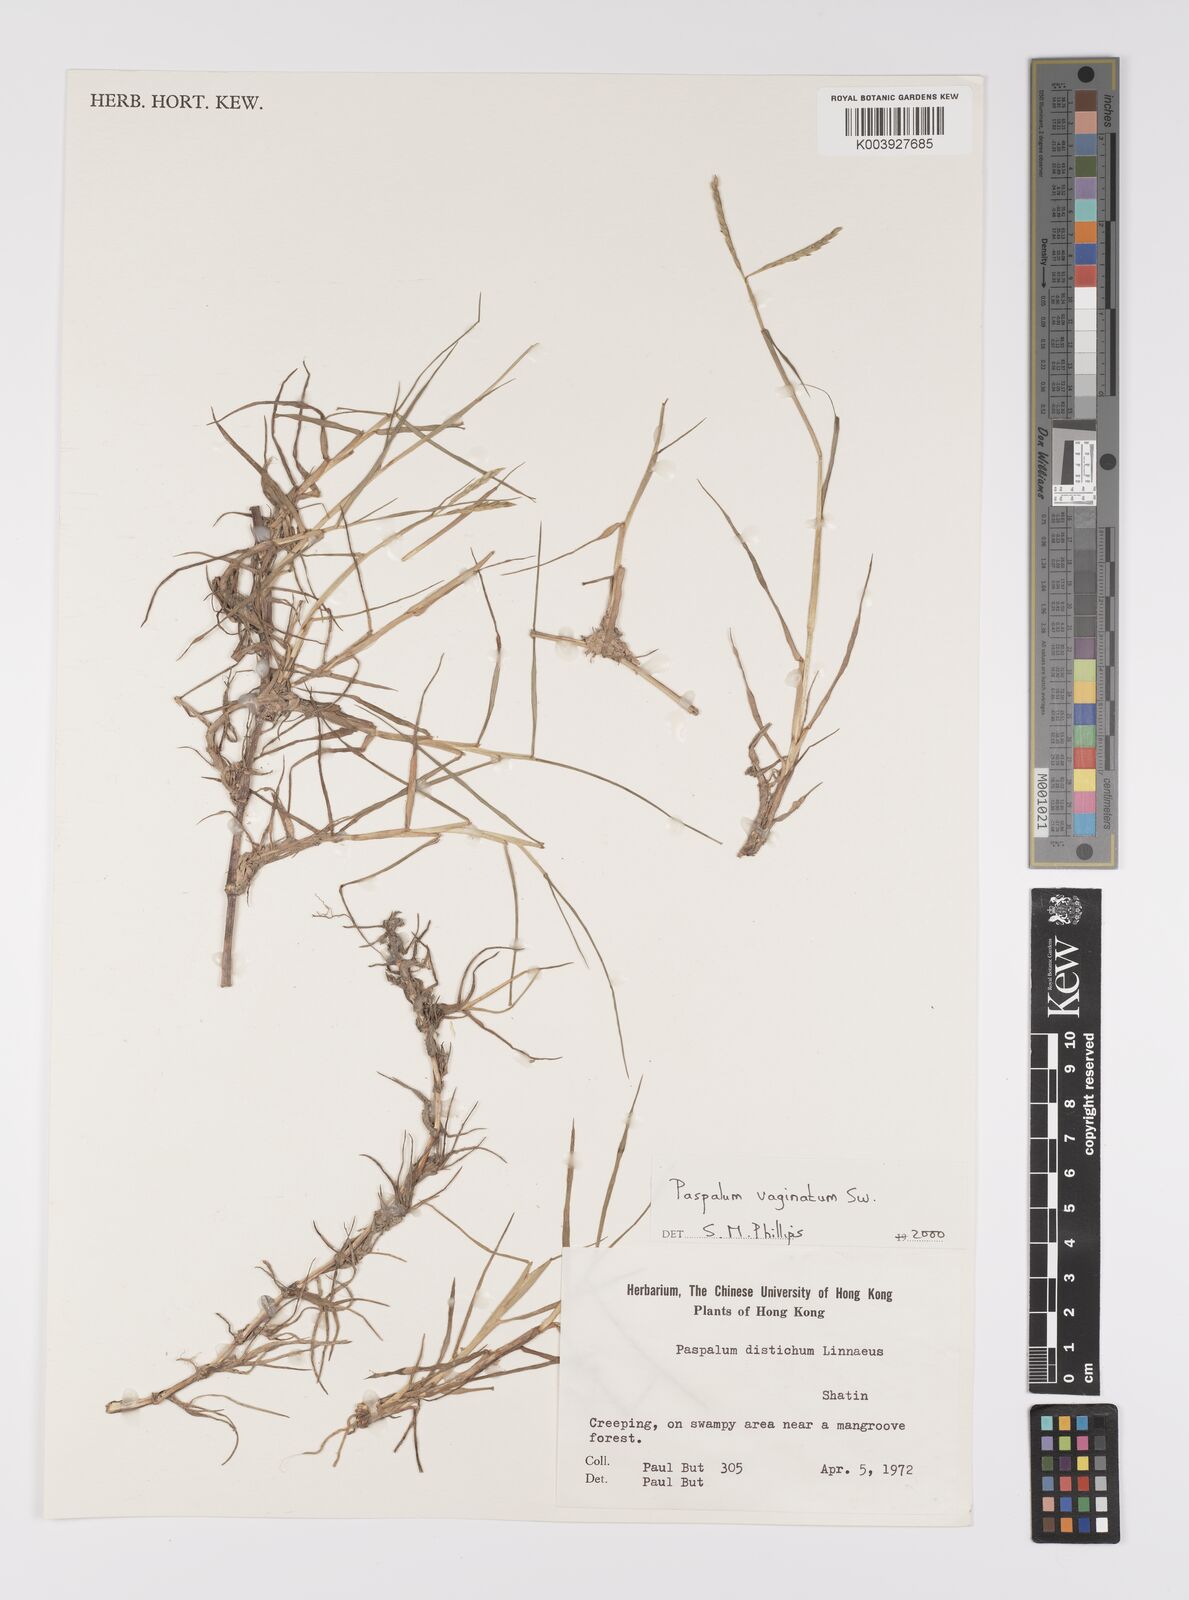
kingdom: Plantae
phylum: Tracheophyta
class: Liliopsida
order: Poales
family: Poaceae
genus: Paspalum
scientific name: Paspalum vaginatum
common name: Seashore paspalum
